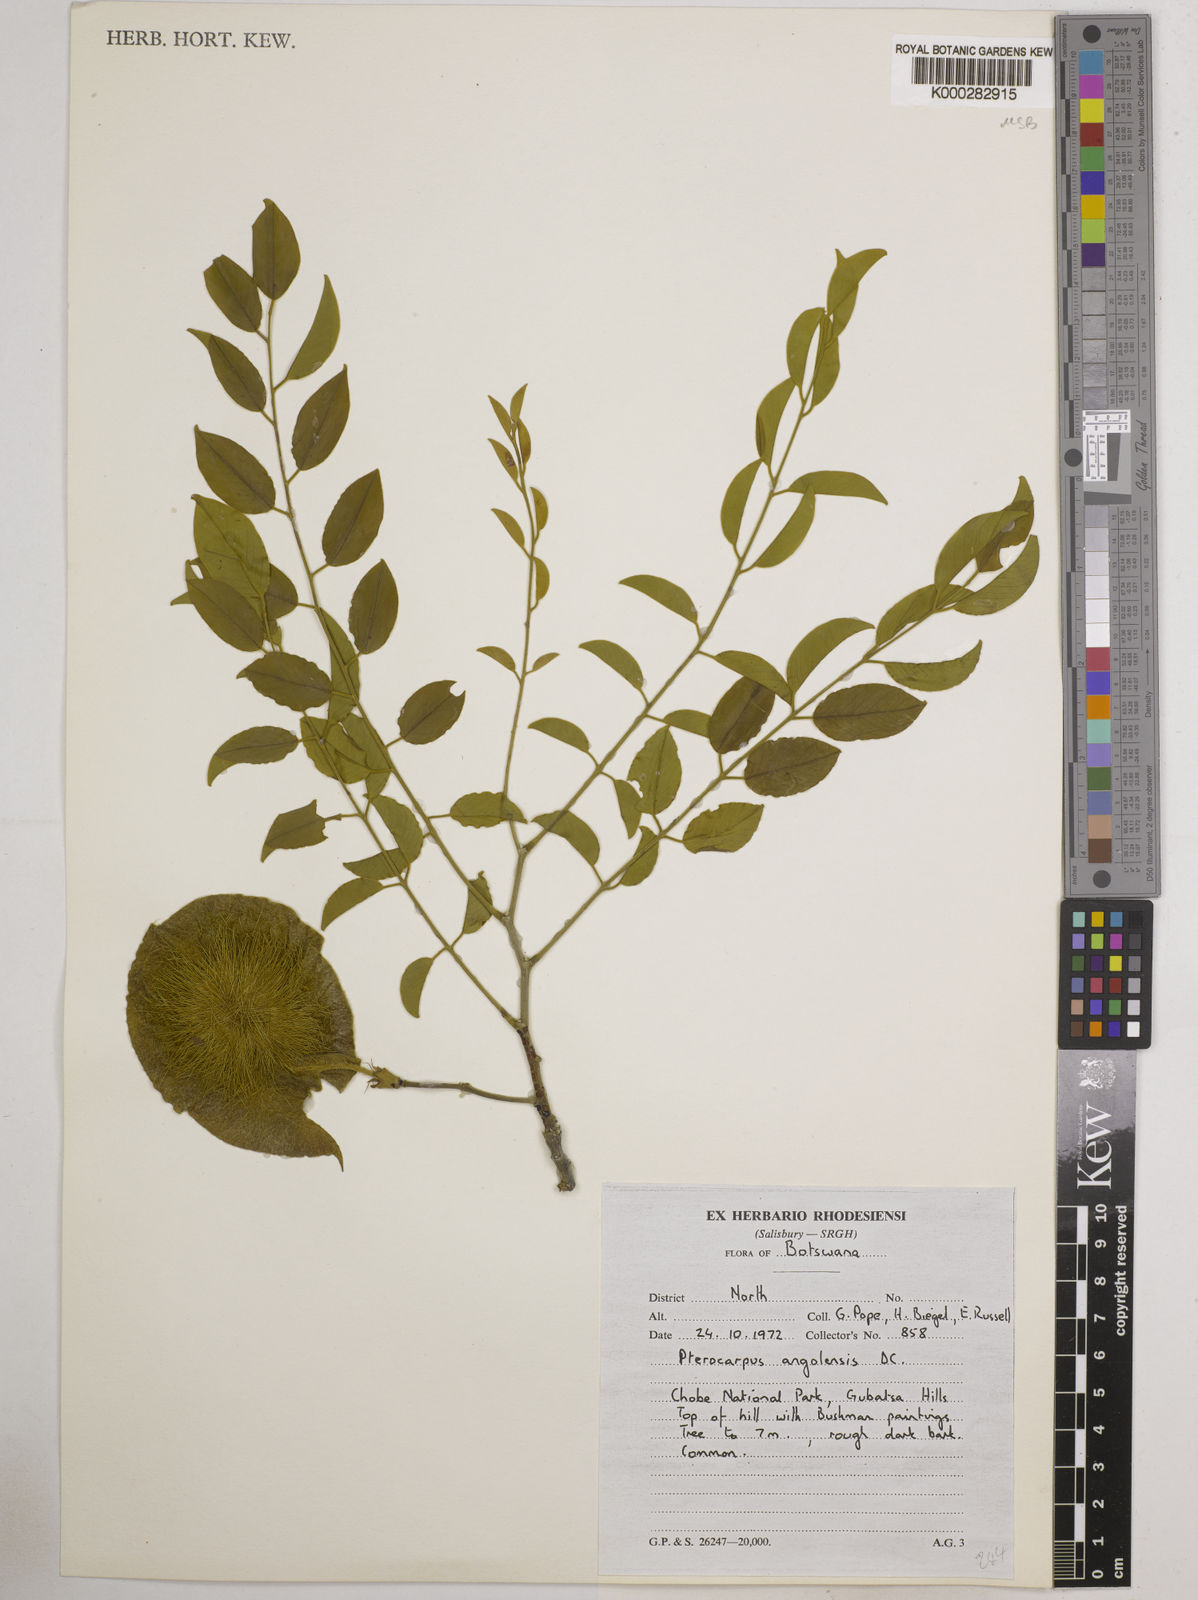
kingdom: Plantae
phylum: Tracheophyta
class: Magnoliopsida
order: Fabales
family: Fabaceae
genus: Pterocarpus
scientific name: Pterocarpus angolensis
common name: Bloodwood tree
